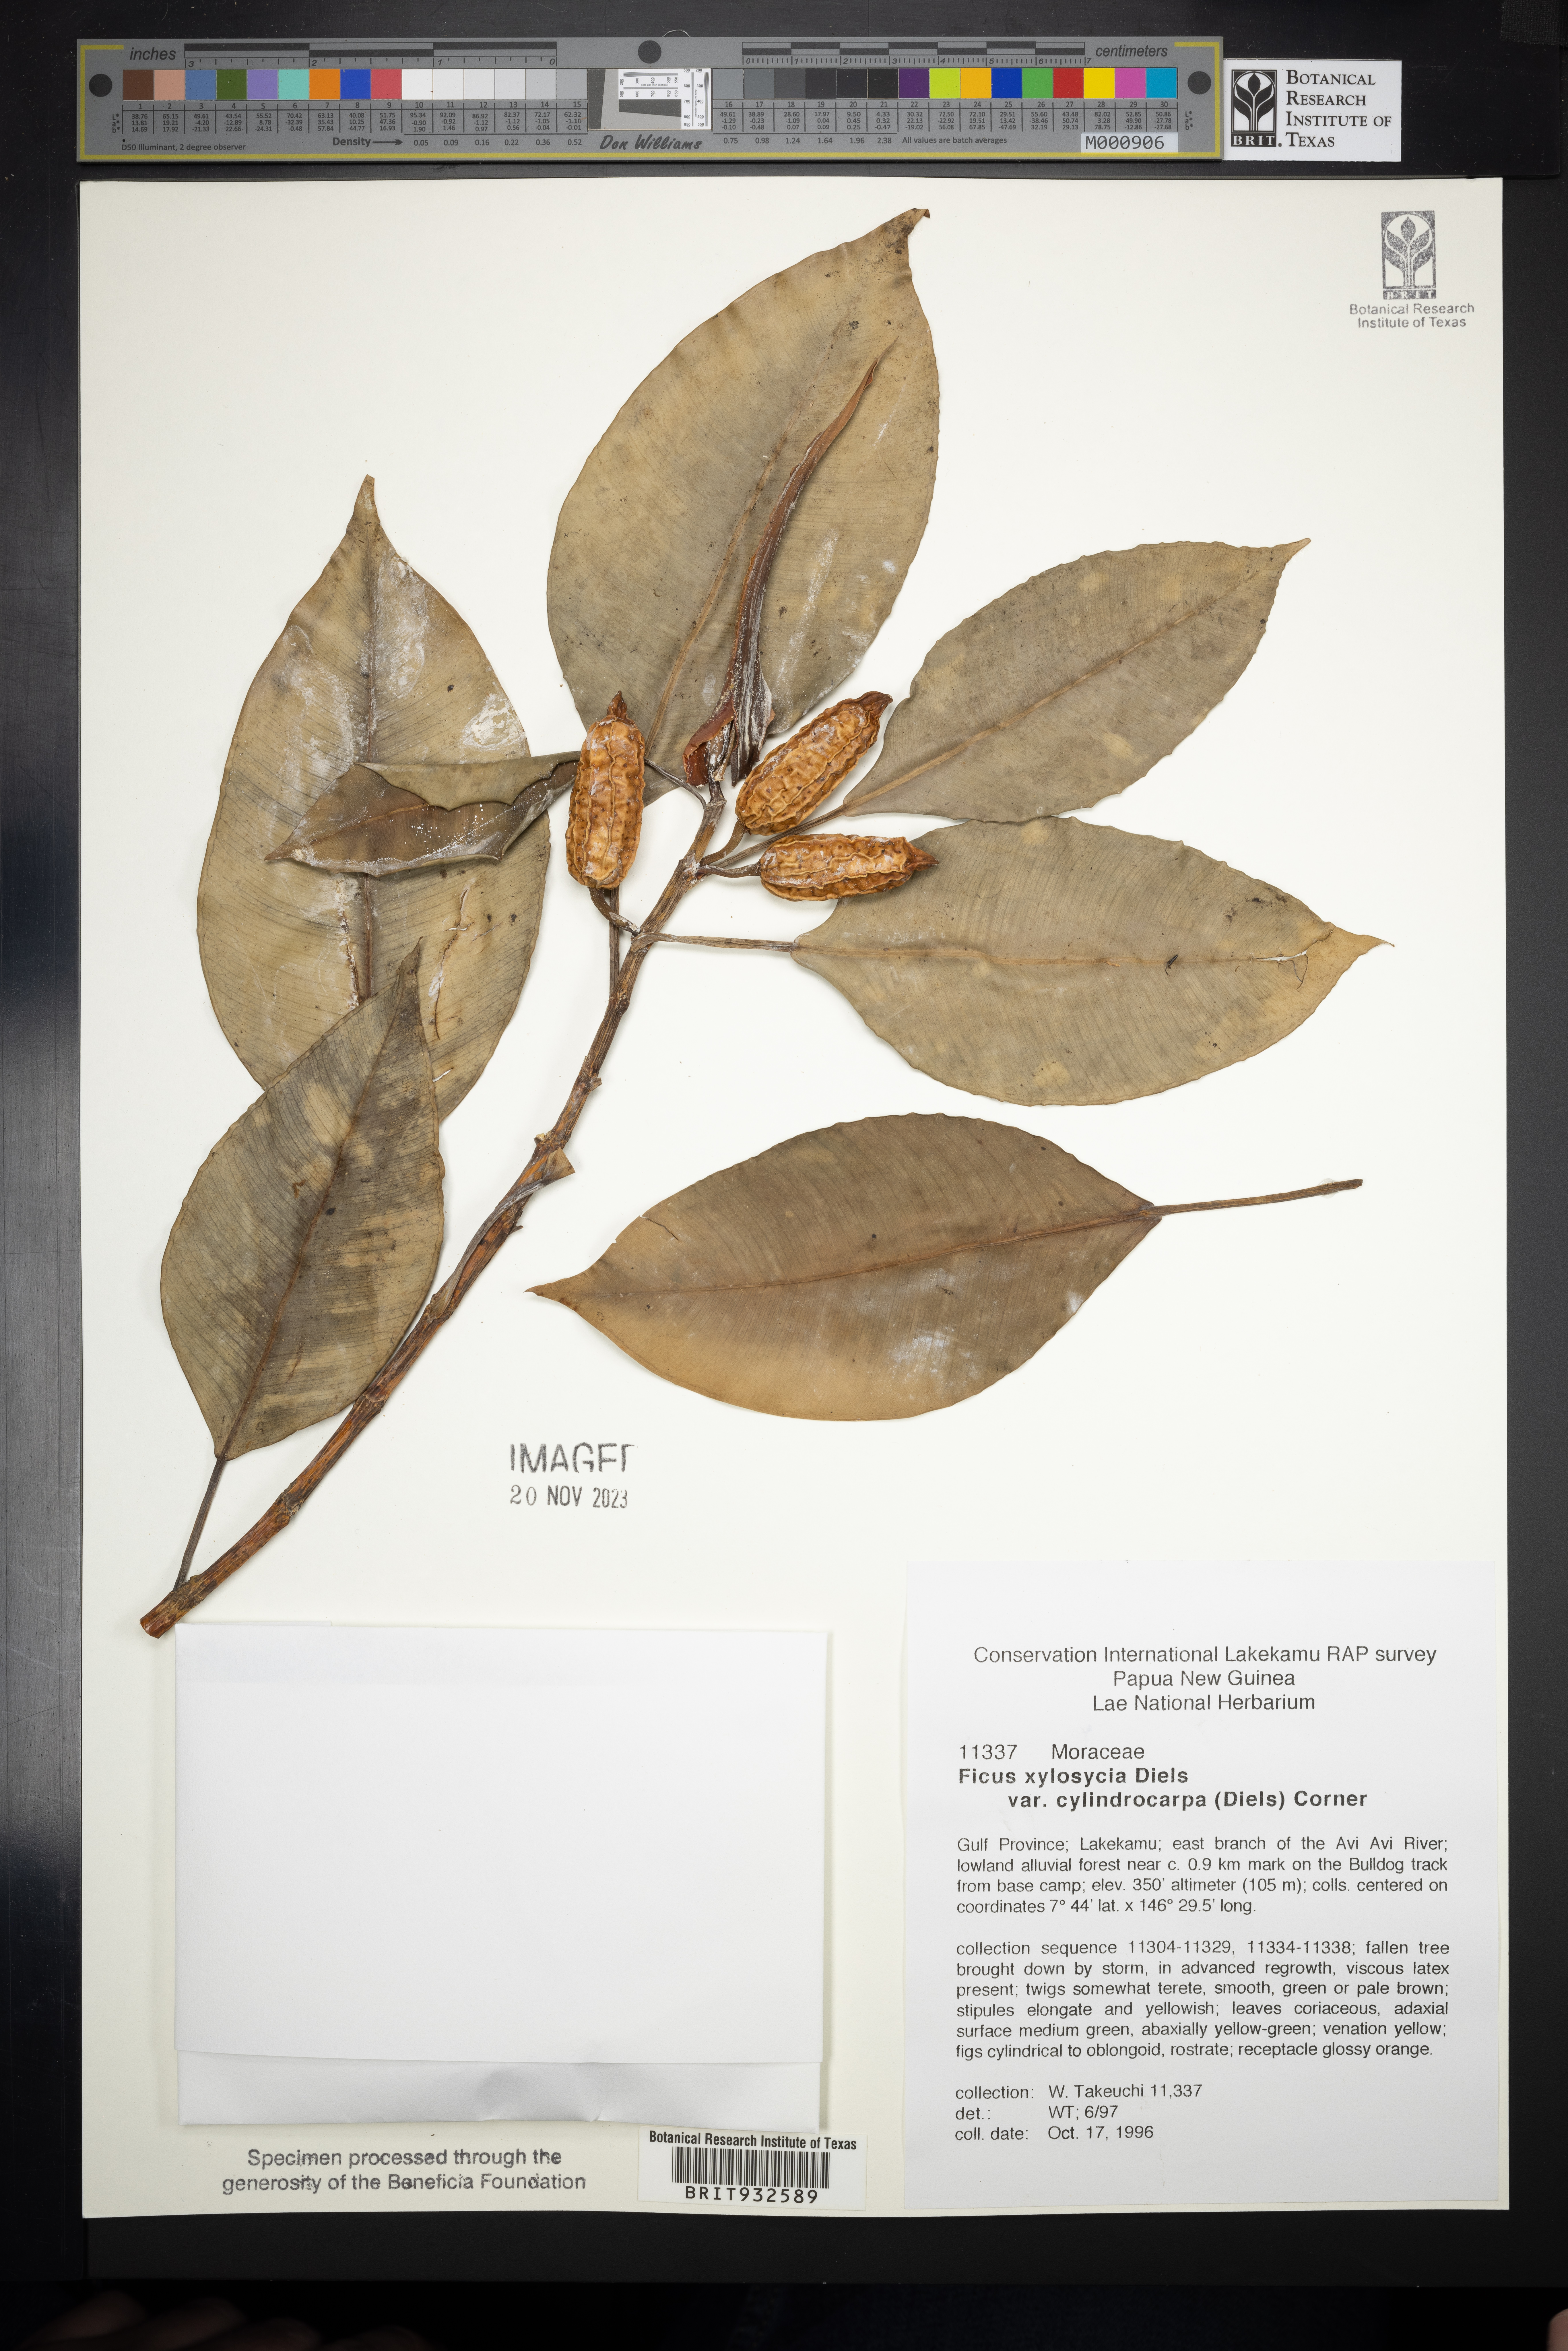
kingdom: Plantae
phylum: Tracheophyta
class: Magnoliopsida
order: Rosales
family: Moraceae
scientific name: Moraceae
